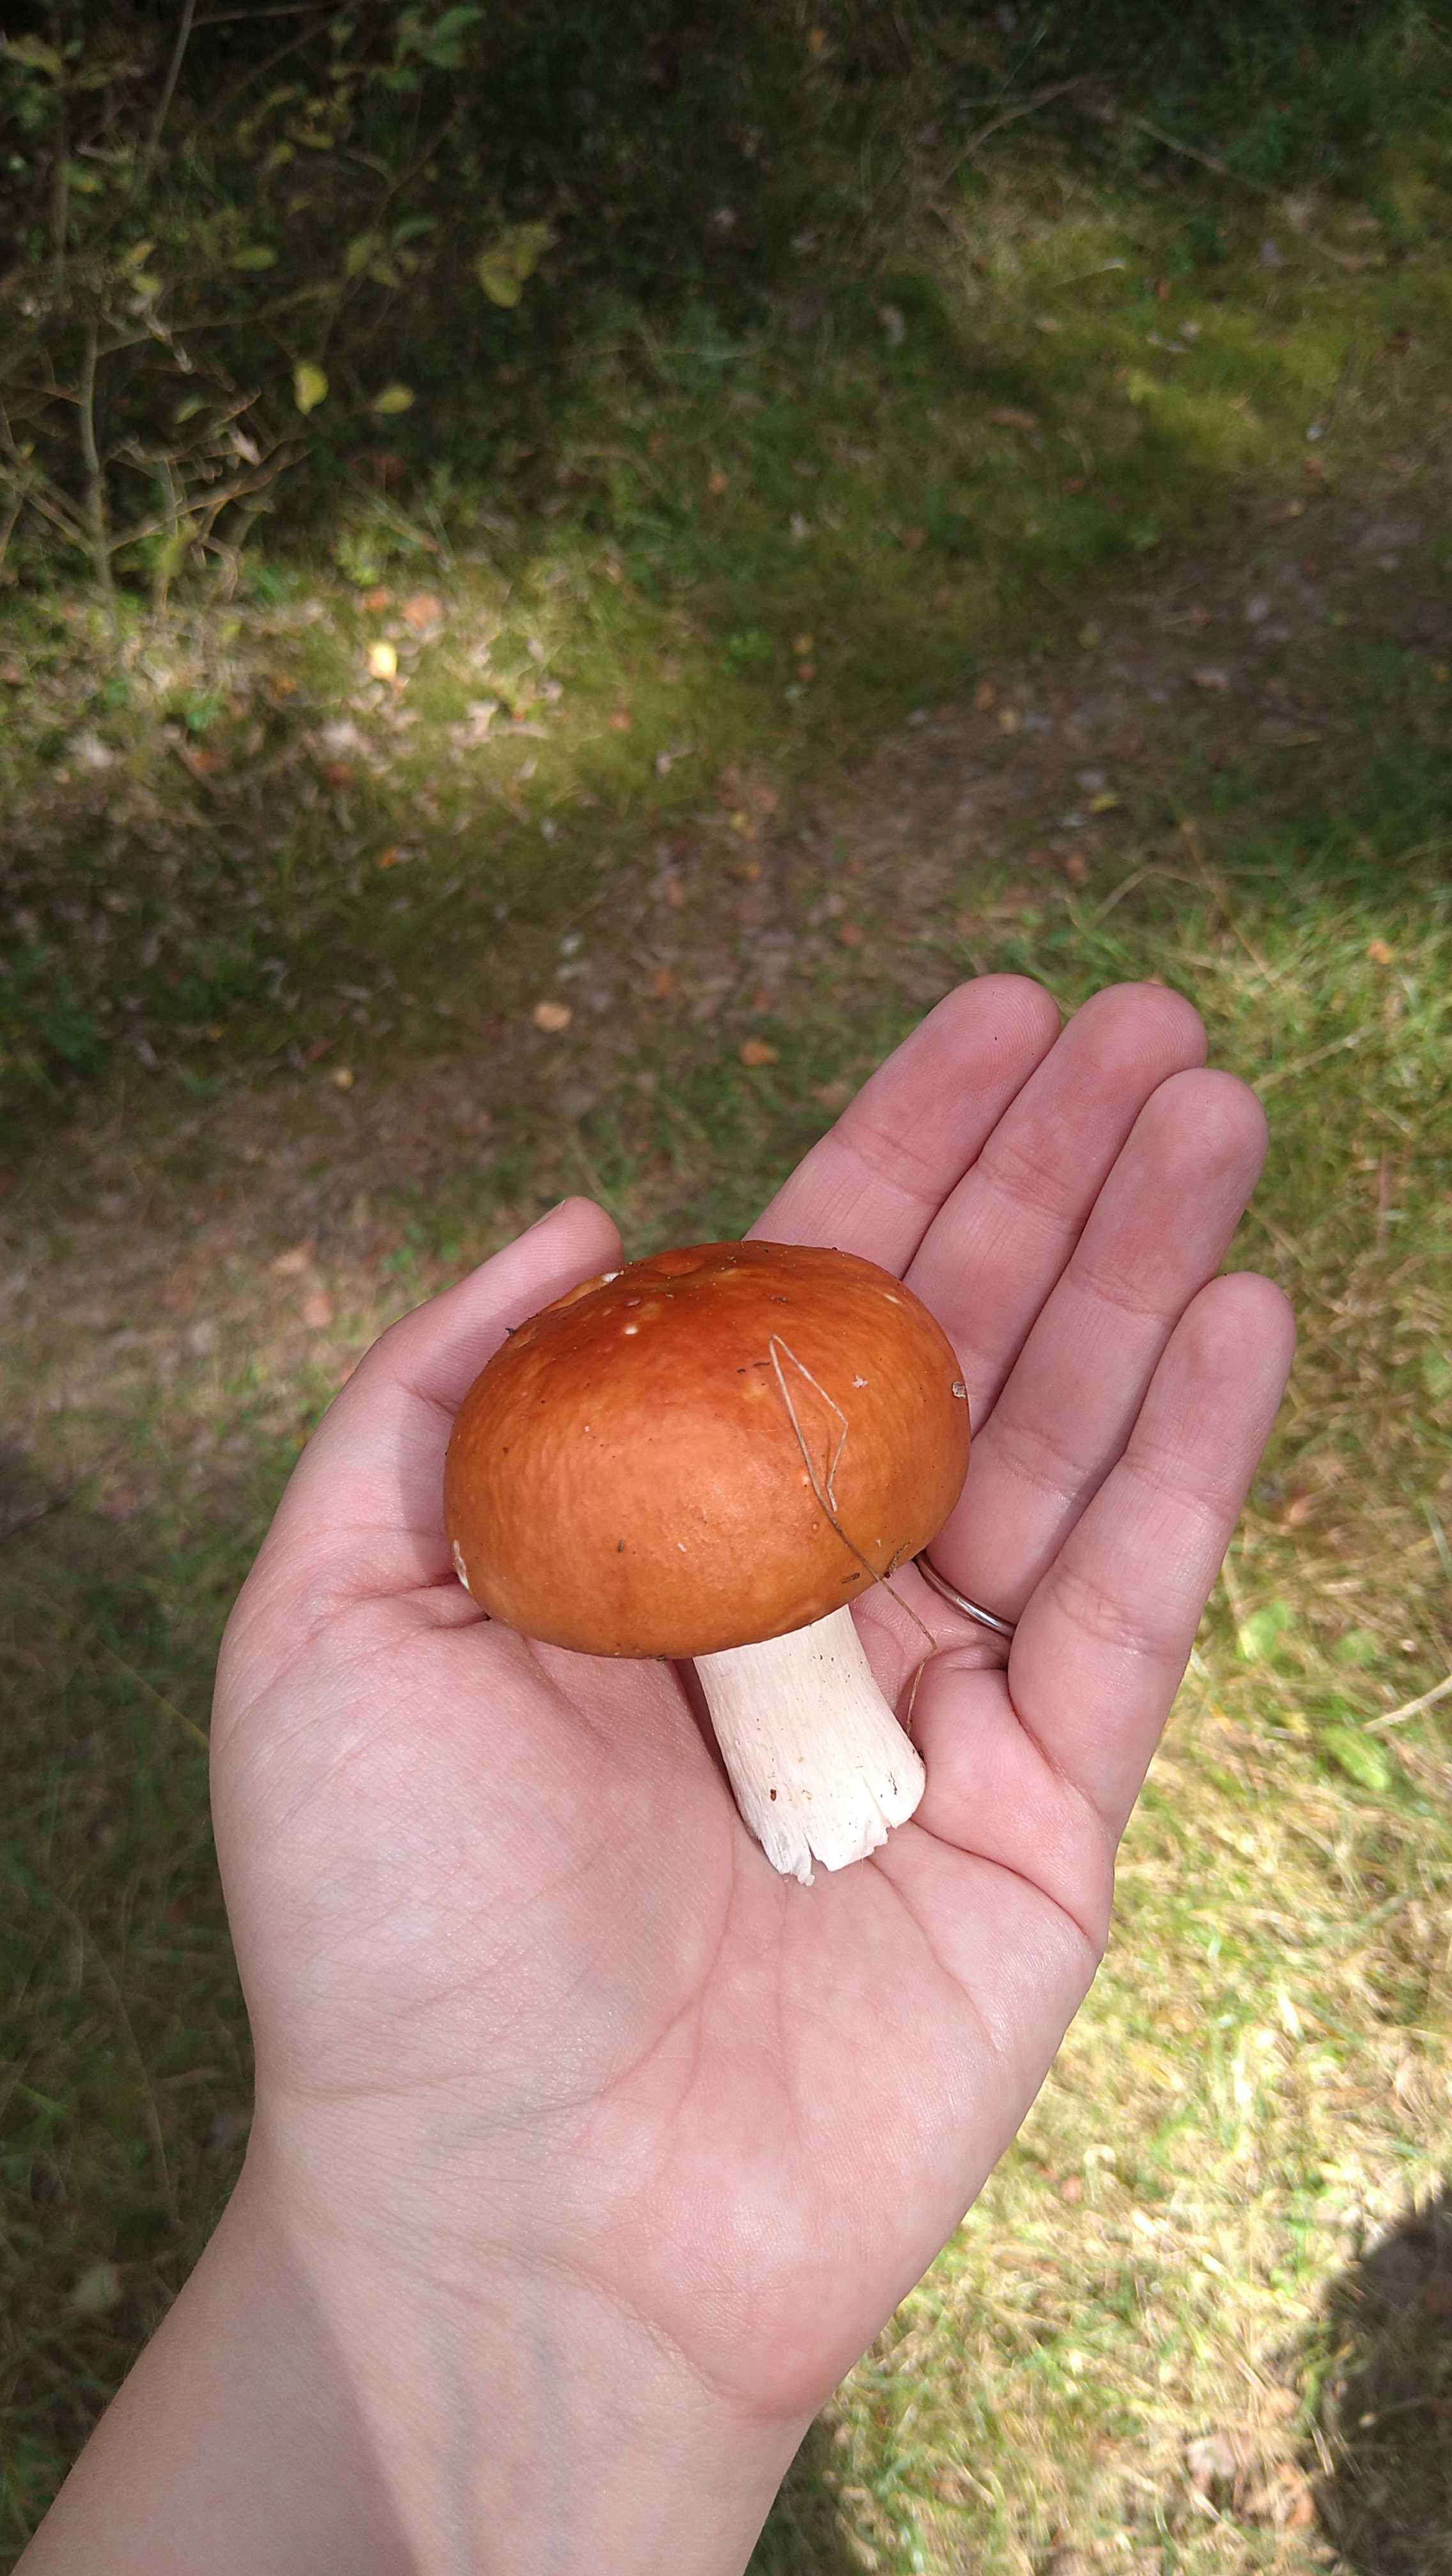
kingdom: Fungi
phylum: Basidiomycota
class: Agaricomycetes
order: Russulales
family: Russulaceae
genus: Russula
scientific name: Russula
